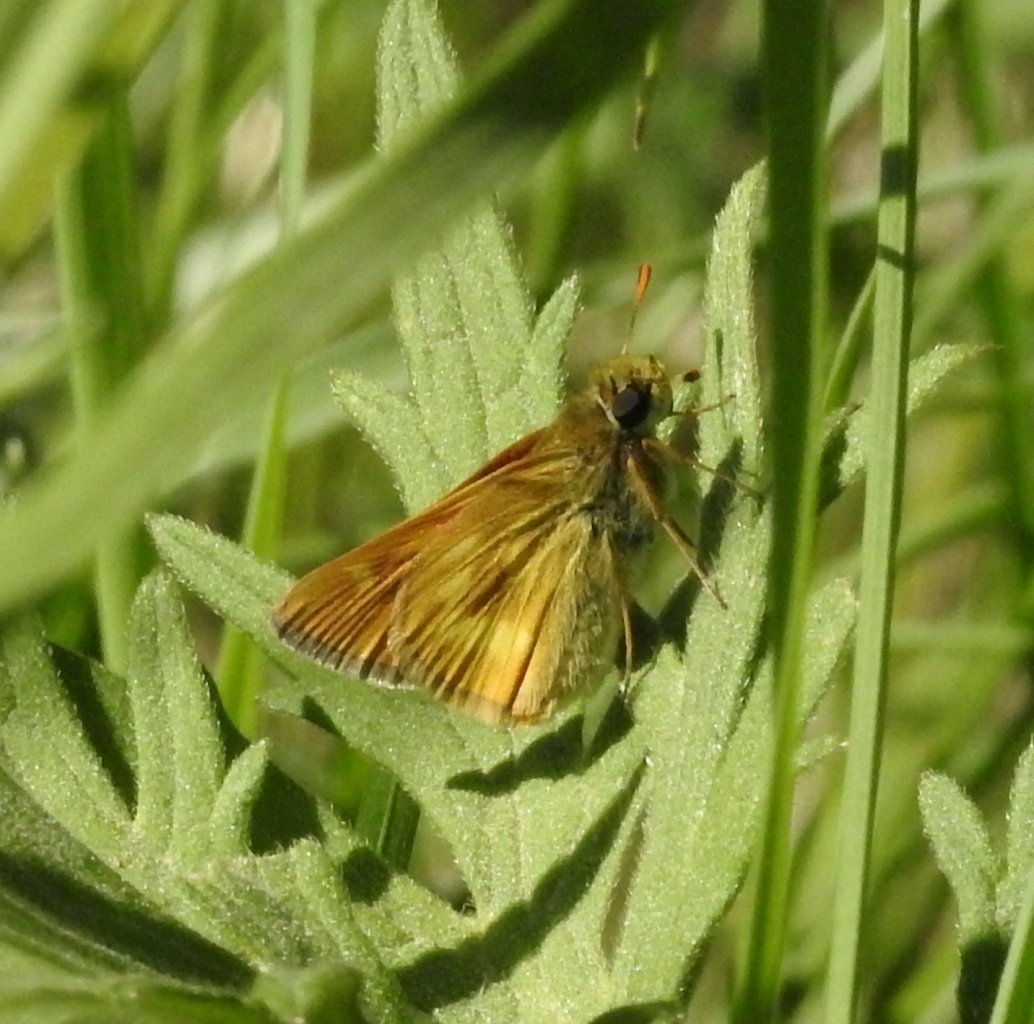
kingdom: Animalia
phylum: Arthropoda
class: Insecta
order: Lepidoptera
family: Hesperiidae
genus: Polites
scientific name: Polites
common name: Long Dash Skipper
